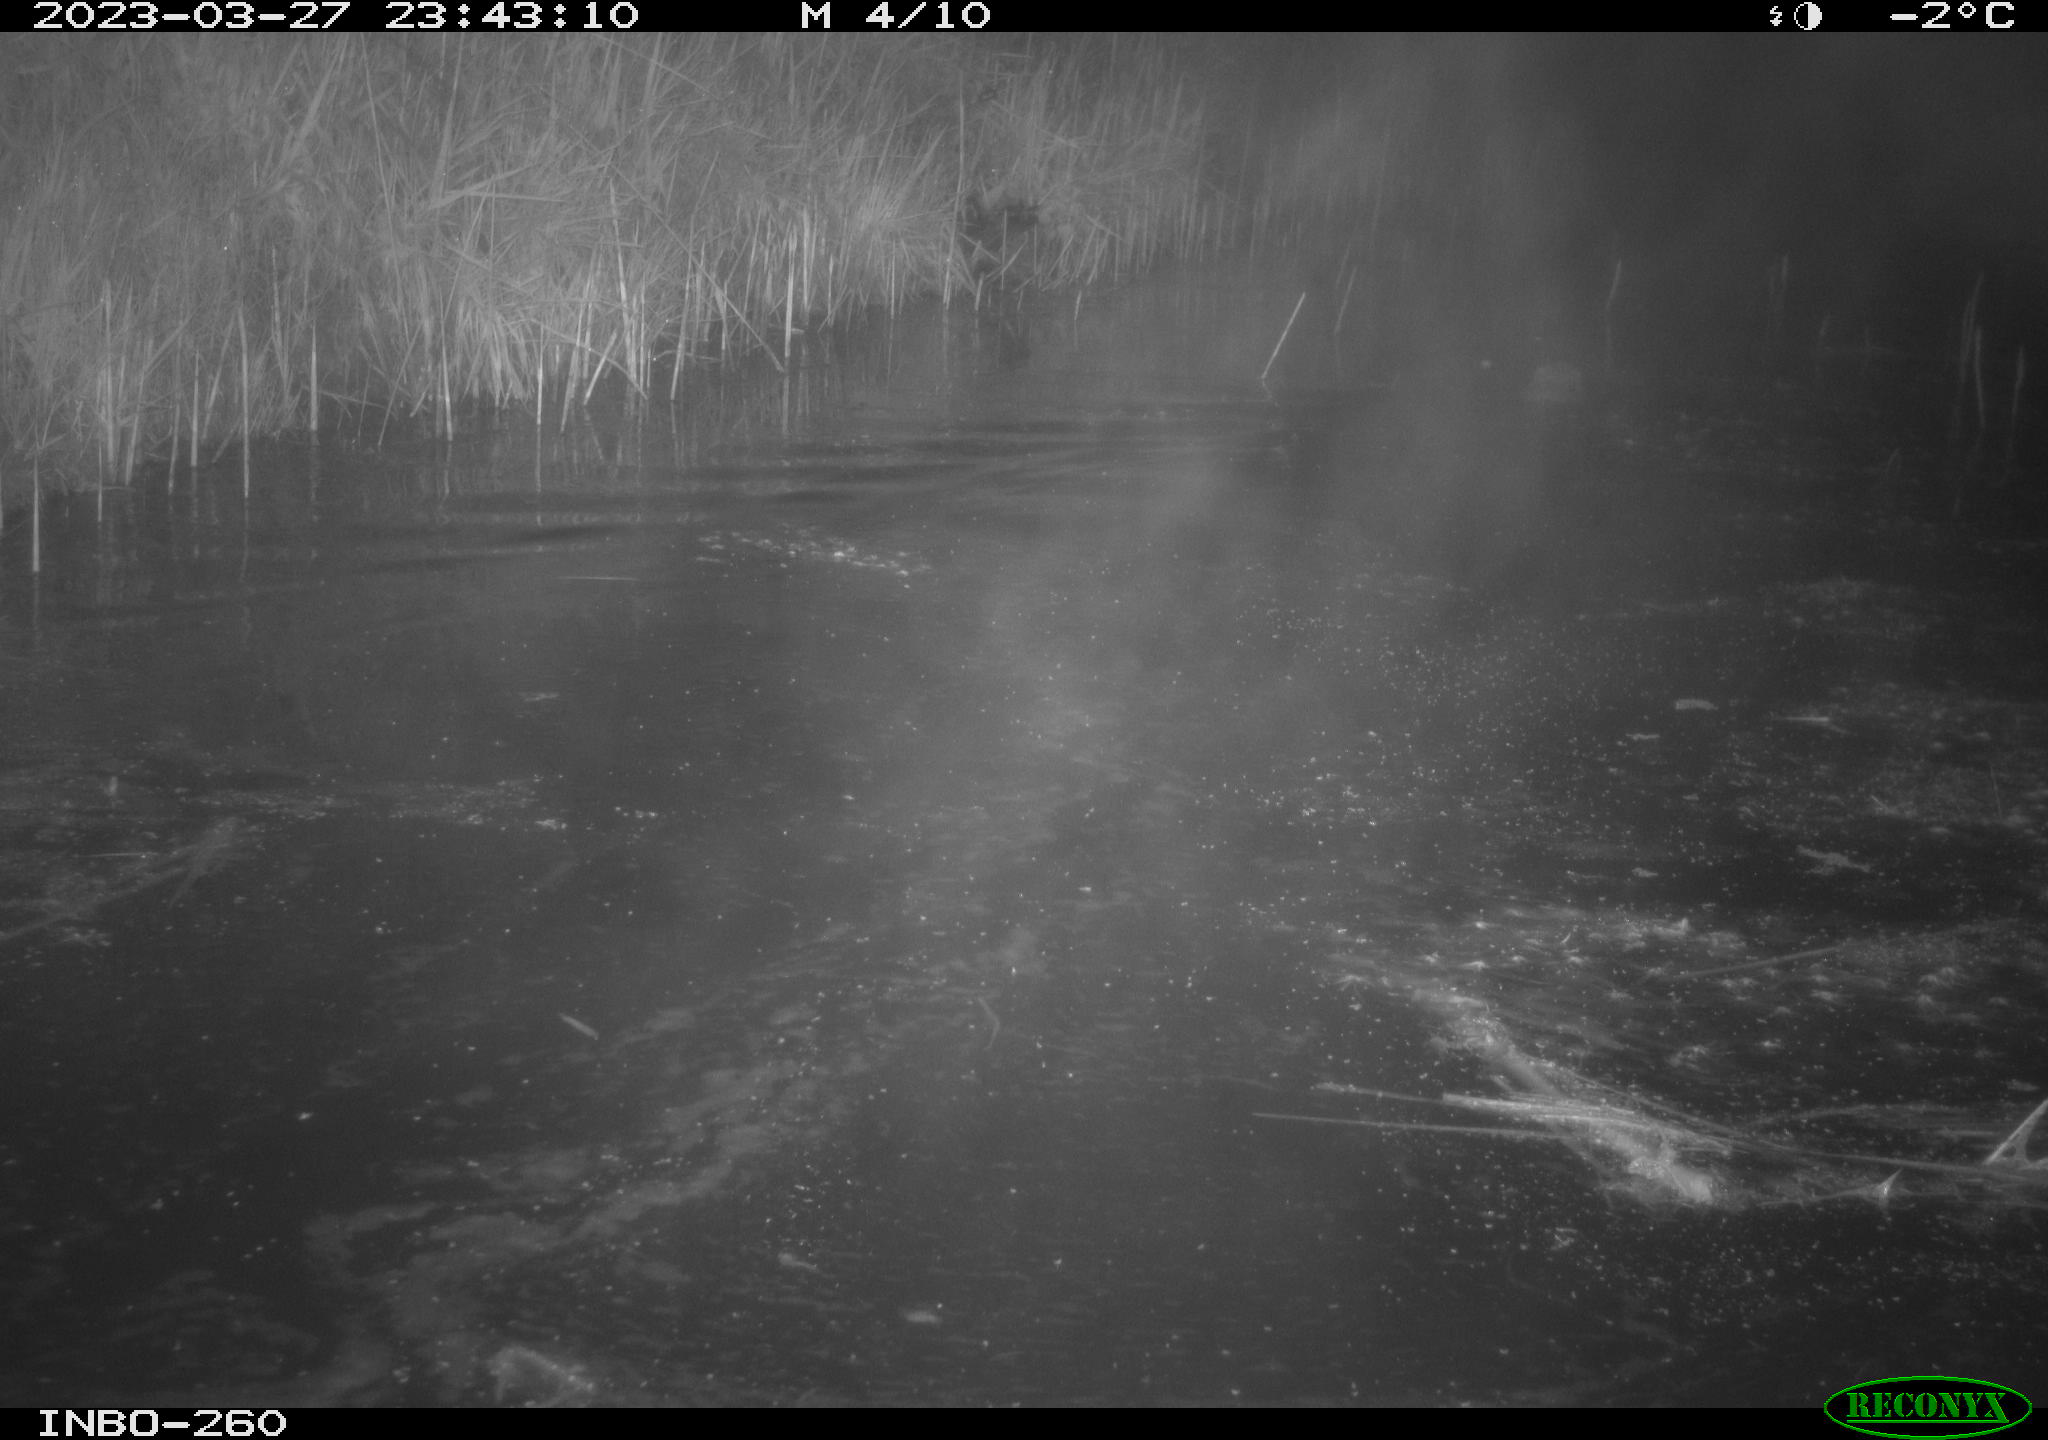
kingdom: Animalia
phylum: Chordata
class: Mammalia
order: Rodentia
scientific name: Rodentia
